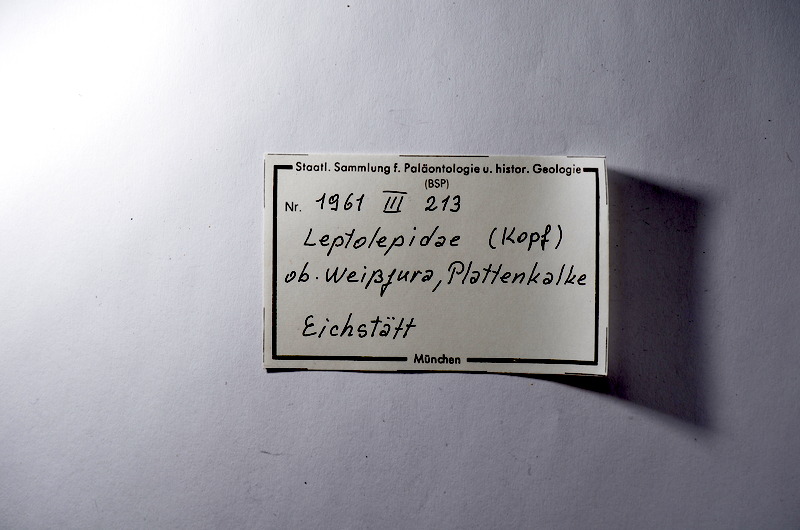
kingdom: Animalia
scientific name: Animalia
